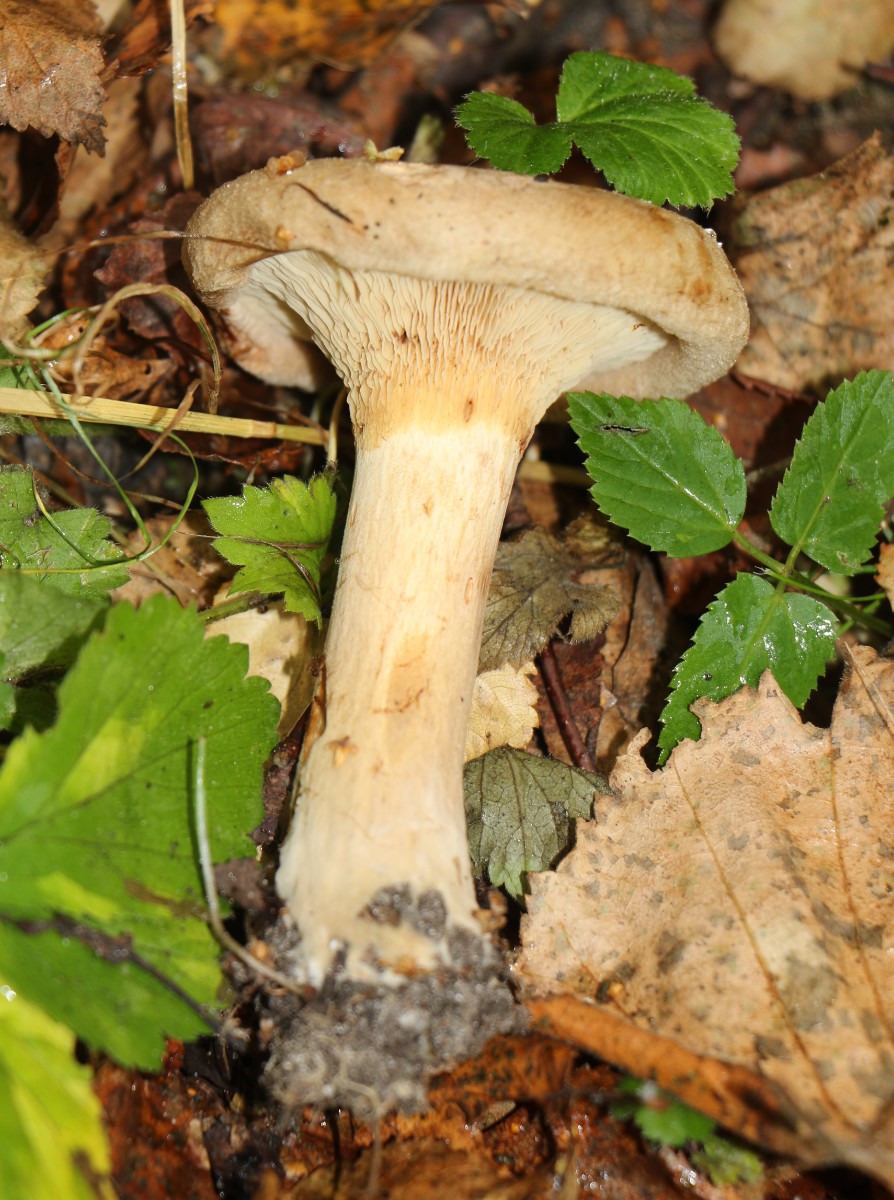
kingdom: Fungi
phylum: Basidiomycota
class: Agaricomycetes
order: Boletales
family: Paxillaceae
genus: Paxillus
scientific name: Paxillus involutus
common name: almindelig netbladhat
